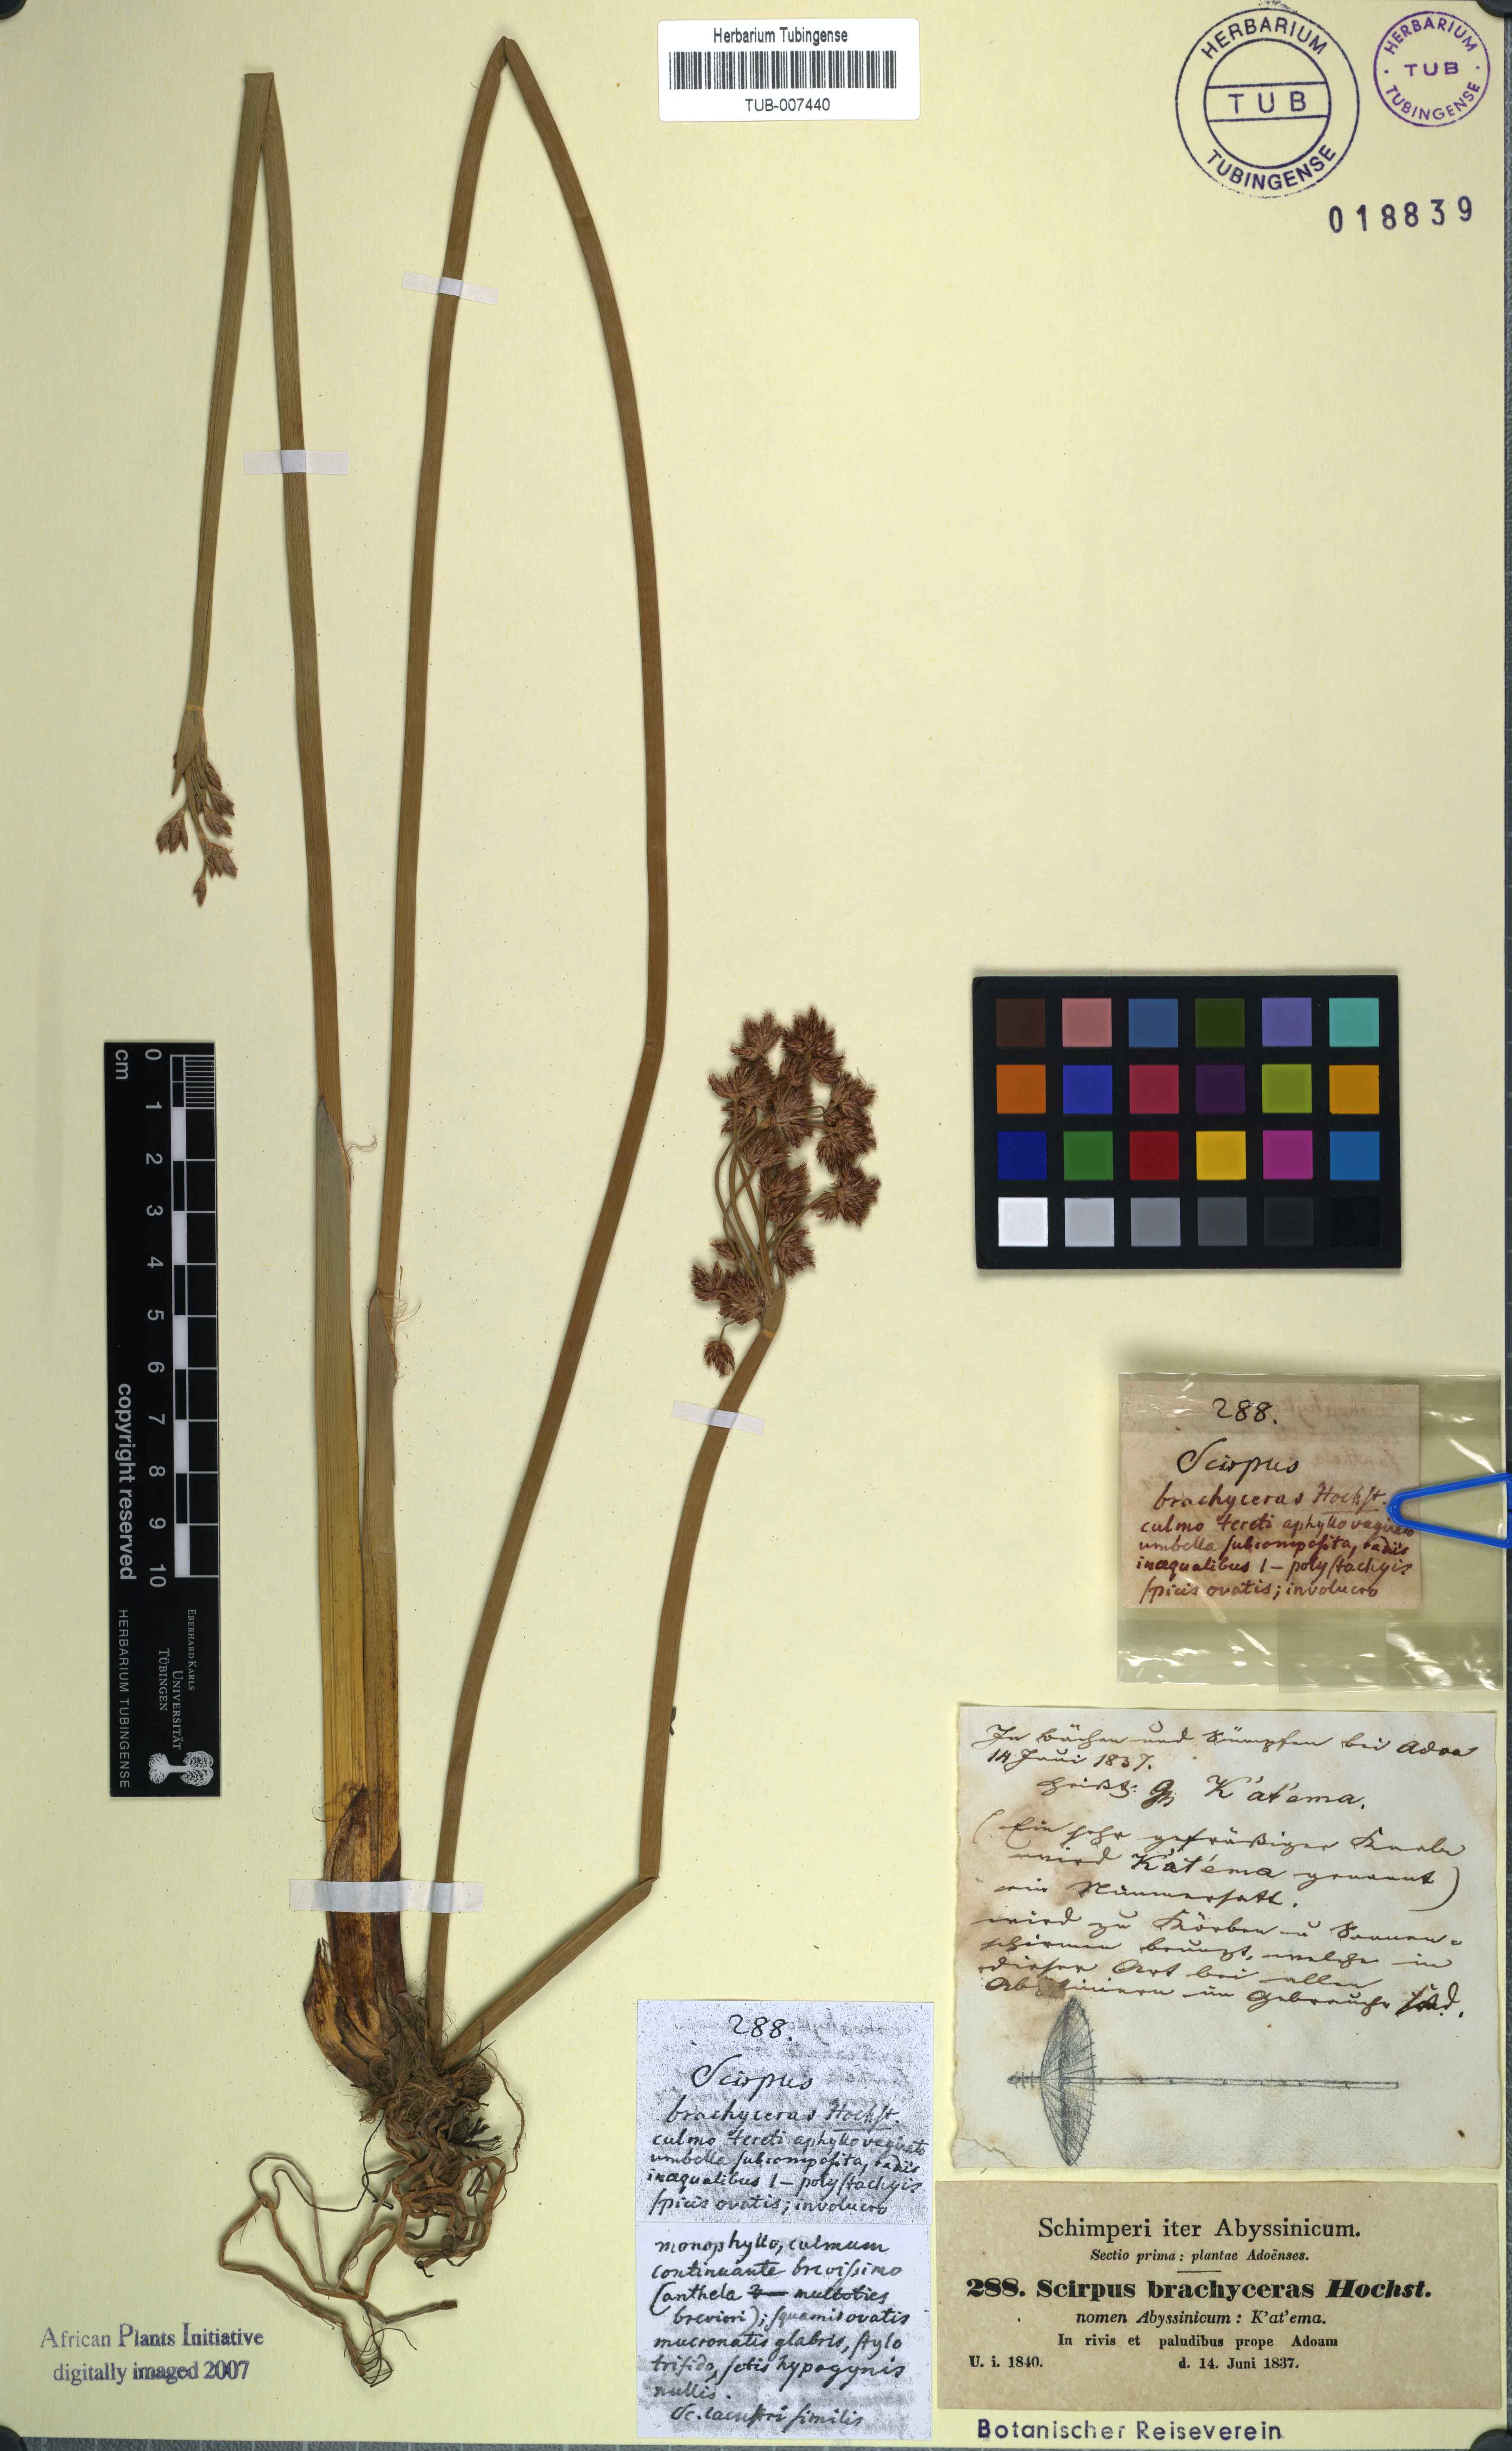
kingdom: Plantae
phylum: Tracheophyta
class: Liliopsida
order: Poales
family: Cyperaceae
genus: Schoenoplectiella
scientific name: Schoenoplectiella corymbosa
